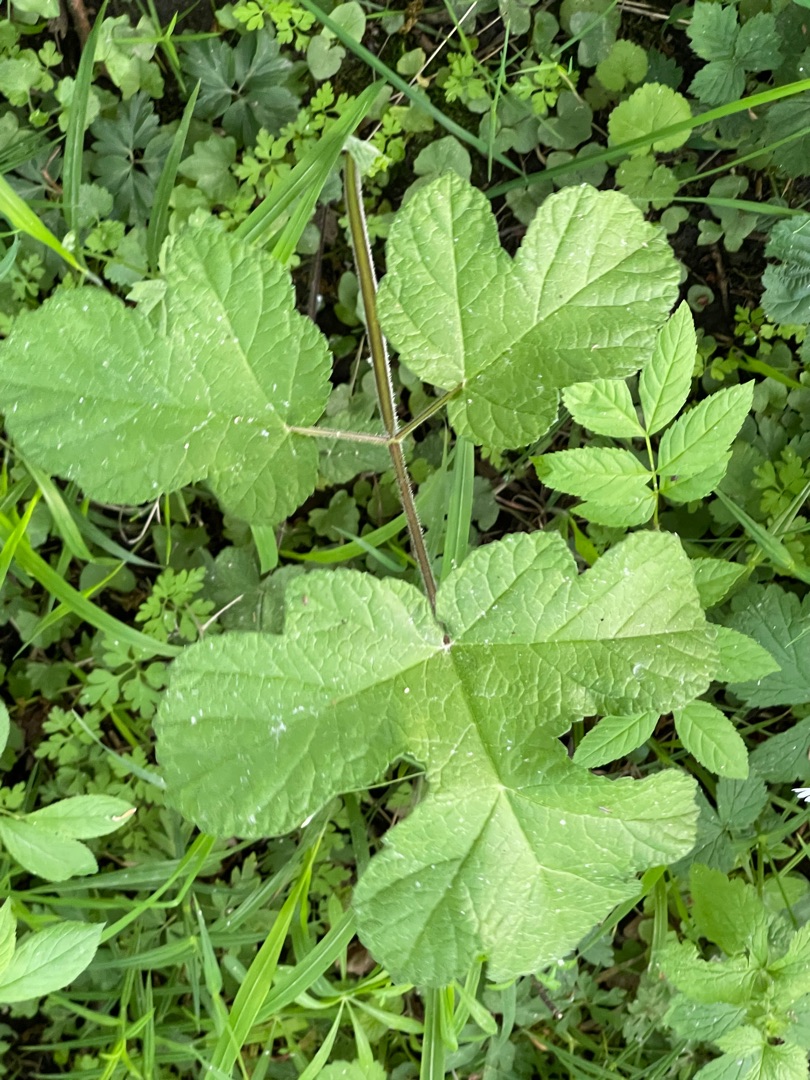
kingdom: Plantae
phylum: Tracheophyta
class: Magnoliopsida
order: Apiales
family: Apiaceae
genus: Heracleum
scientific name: Heracleum sphondylium
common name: Almindelig bjørneklo
